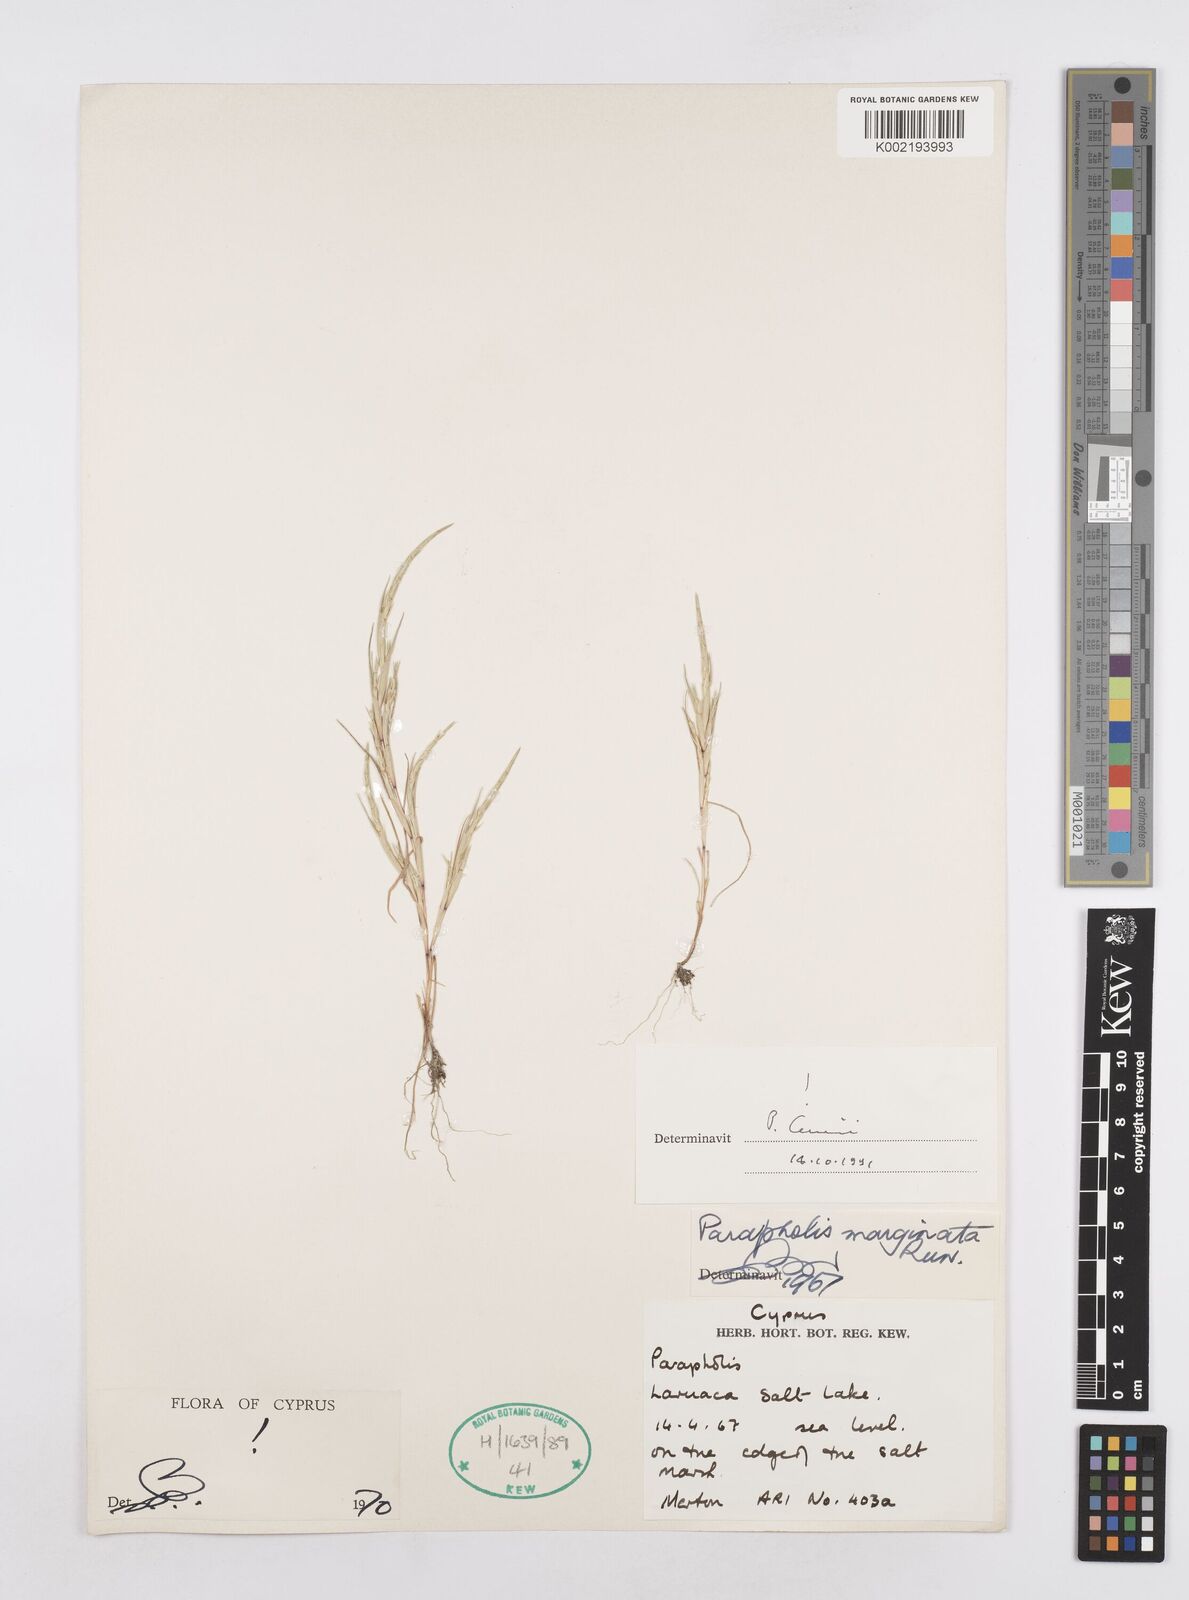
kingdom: Plantae
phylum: Tracheophyta
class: Liliopsida
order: Poales
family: Poaceae
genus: Parapholis
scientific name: Parapholis marginata
